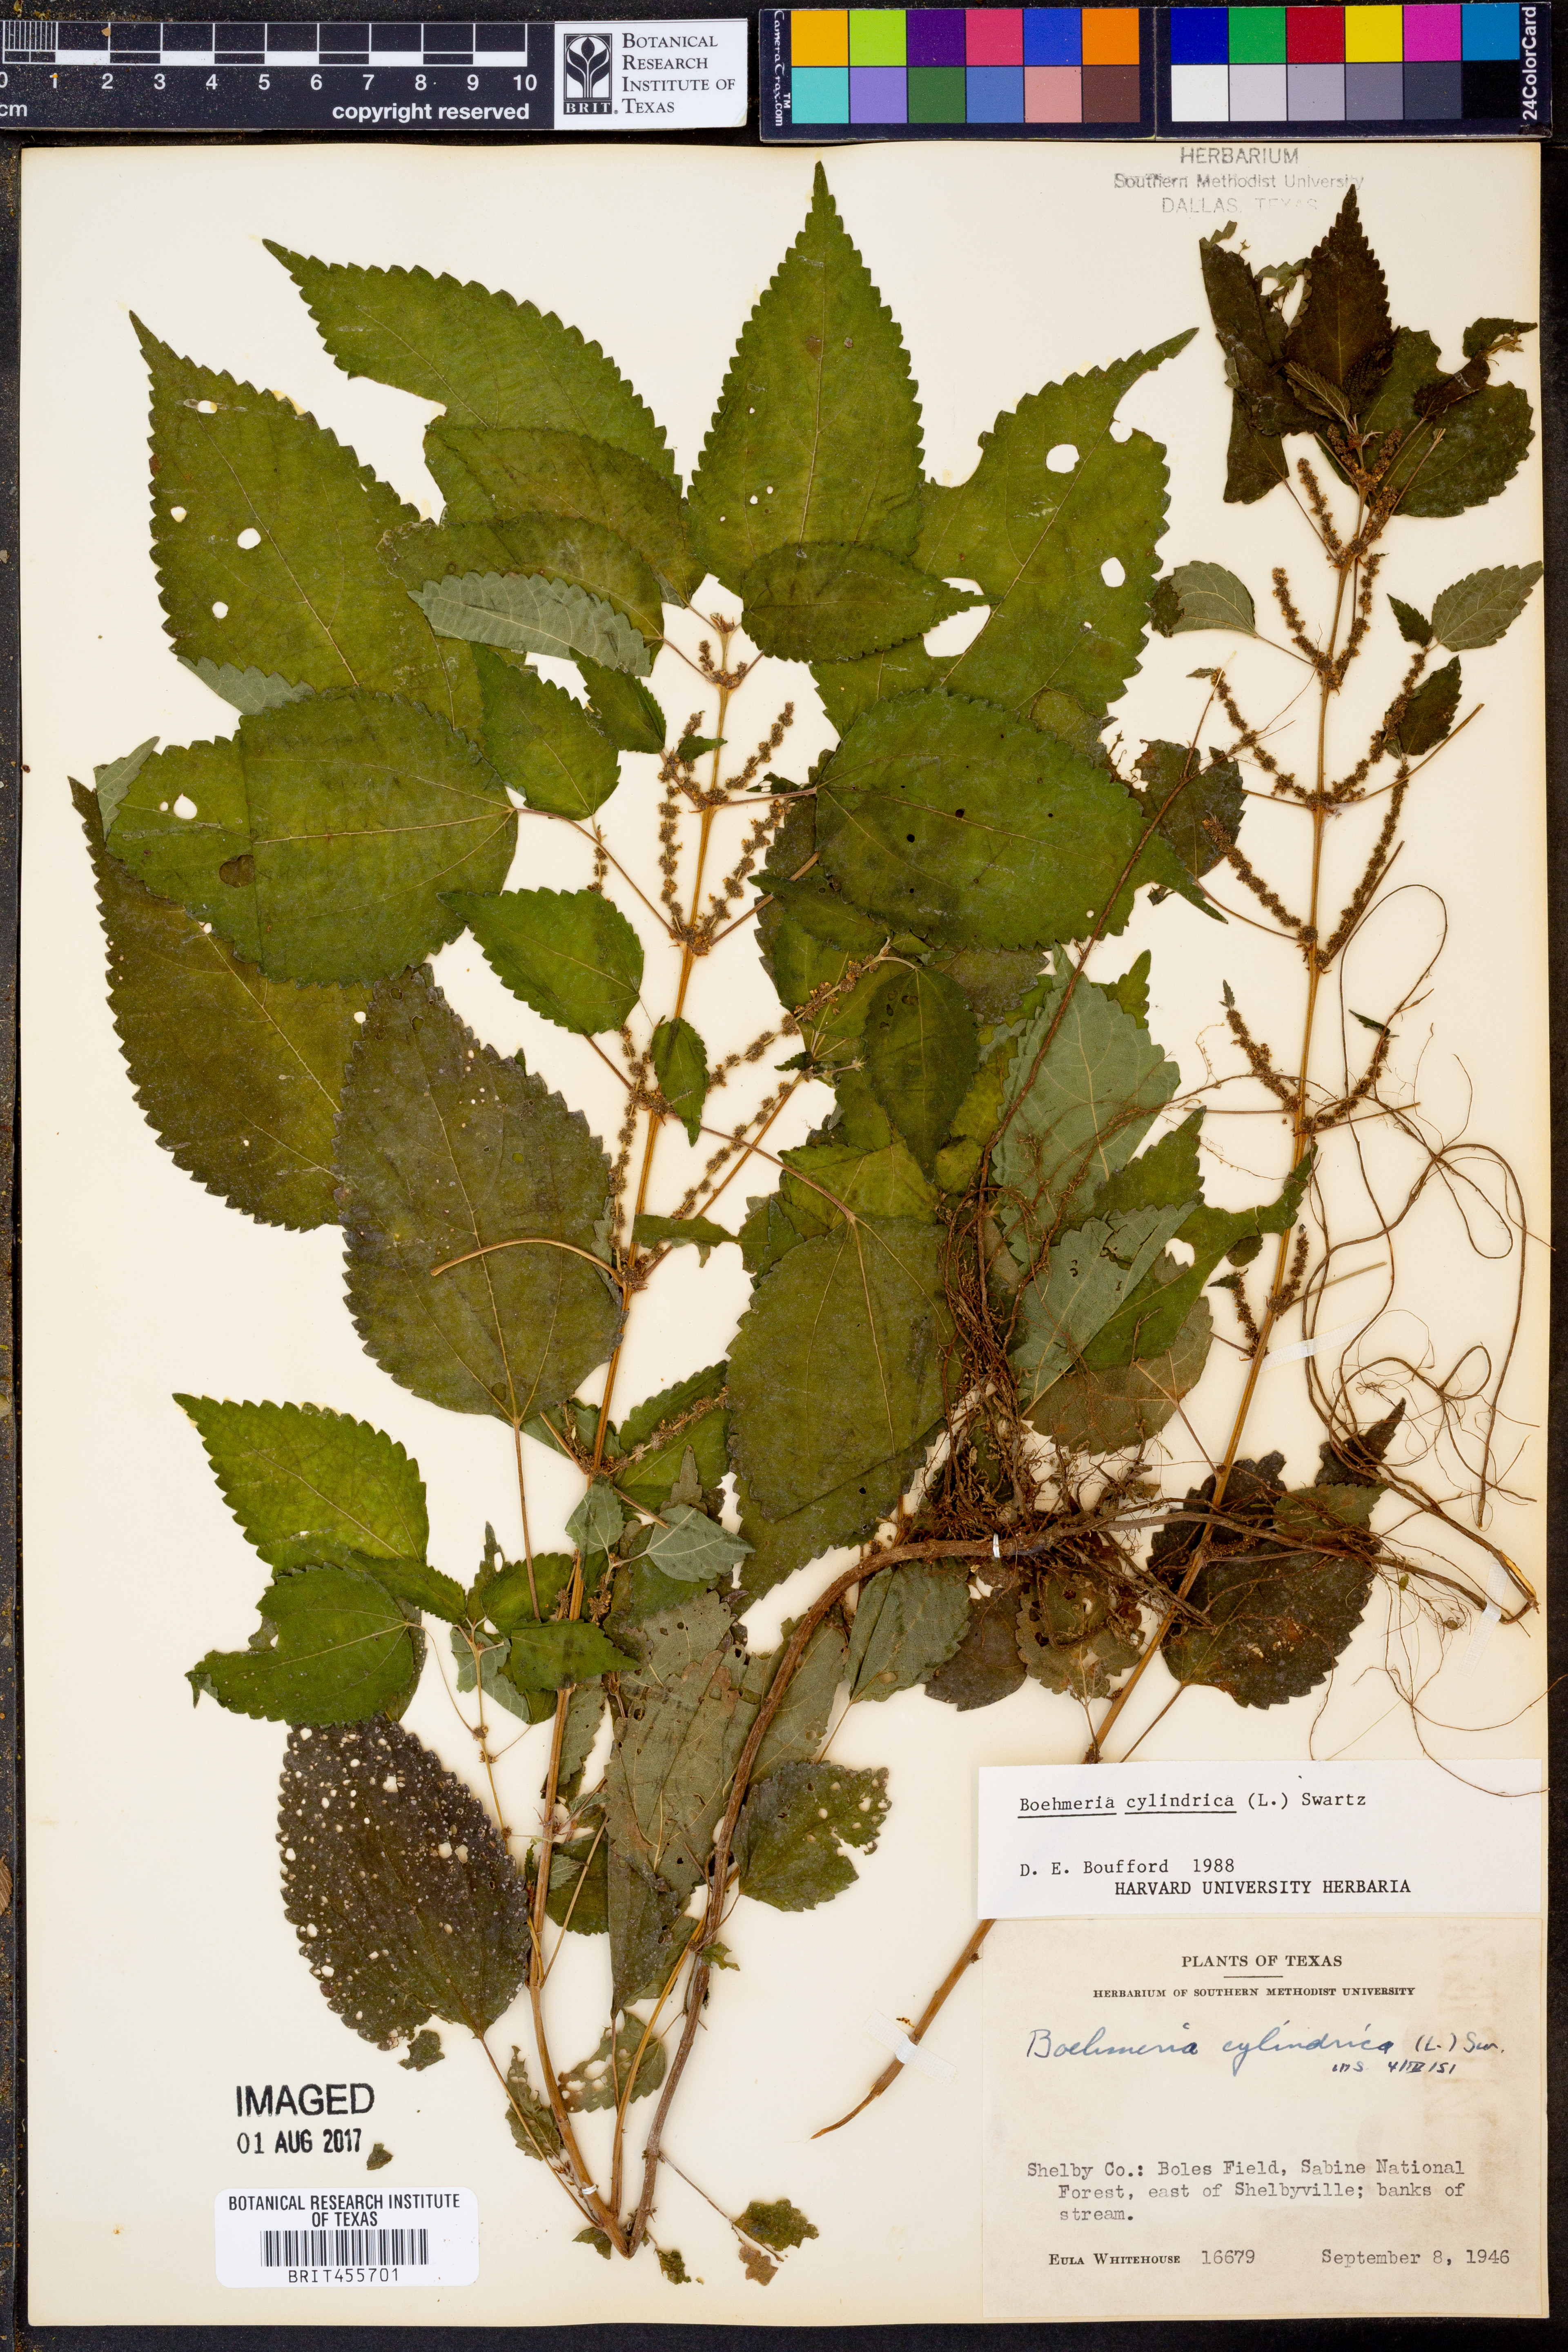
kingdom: Plantae
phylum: Tracheophyta
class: Magnoliopsida
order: Rosales
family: Urticaceae
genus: Boehmeria
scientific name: Boehmeria cylindrica
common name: Bog-hemp
